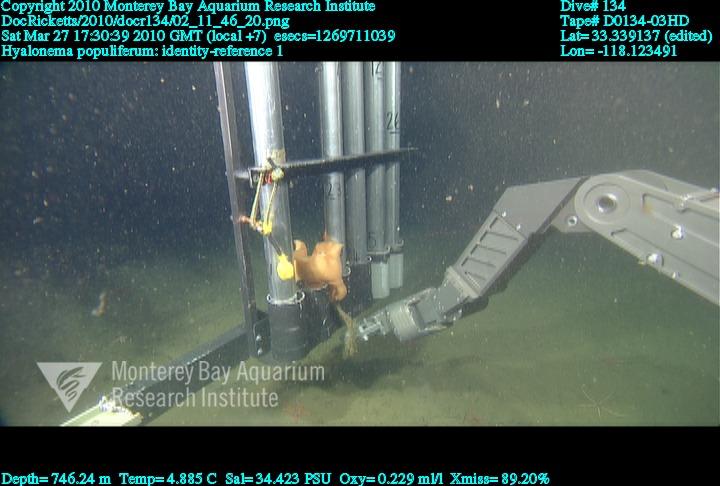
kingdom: Animalia
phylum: Porifera
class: Hexactinellida
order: Amphidiscosida
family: Hyalonematidae
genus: Hyalonema
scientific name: Hyalonema populiferum
